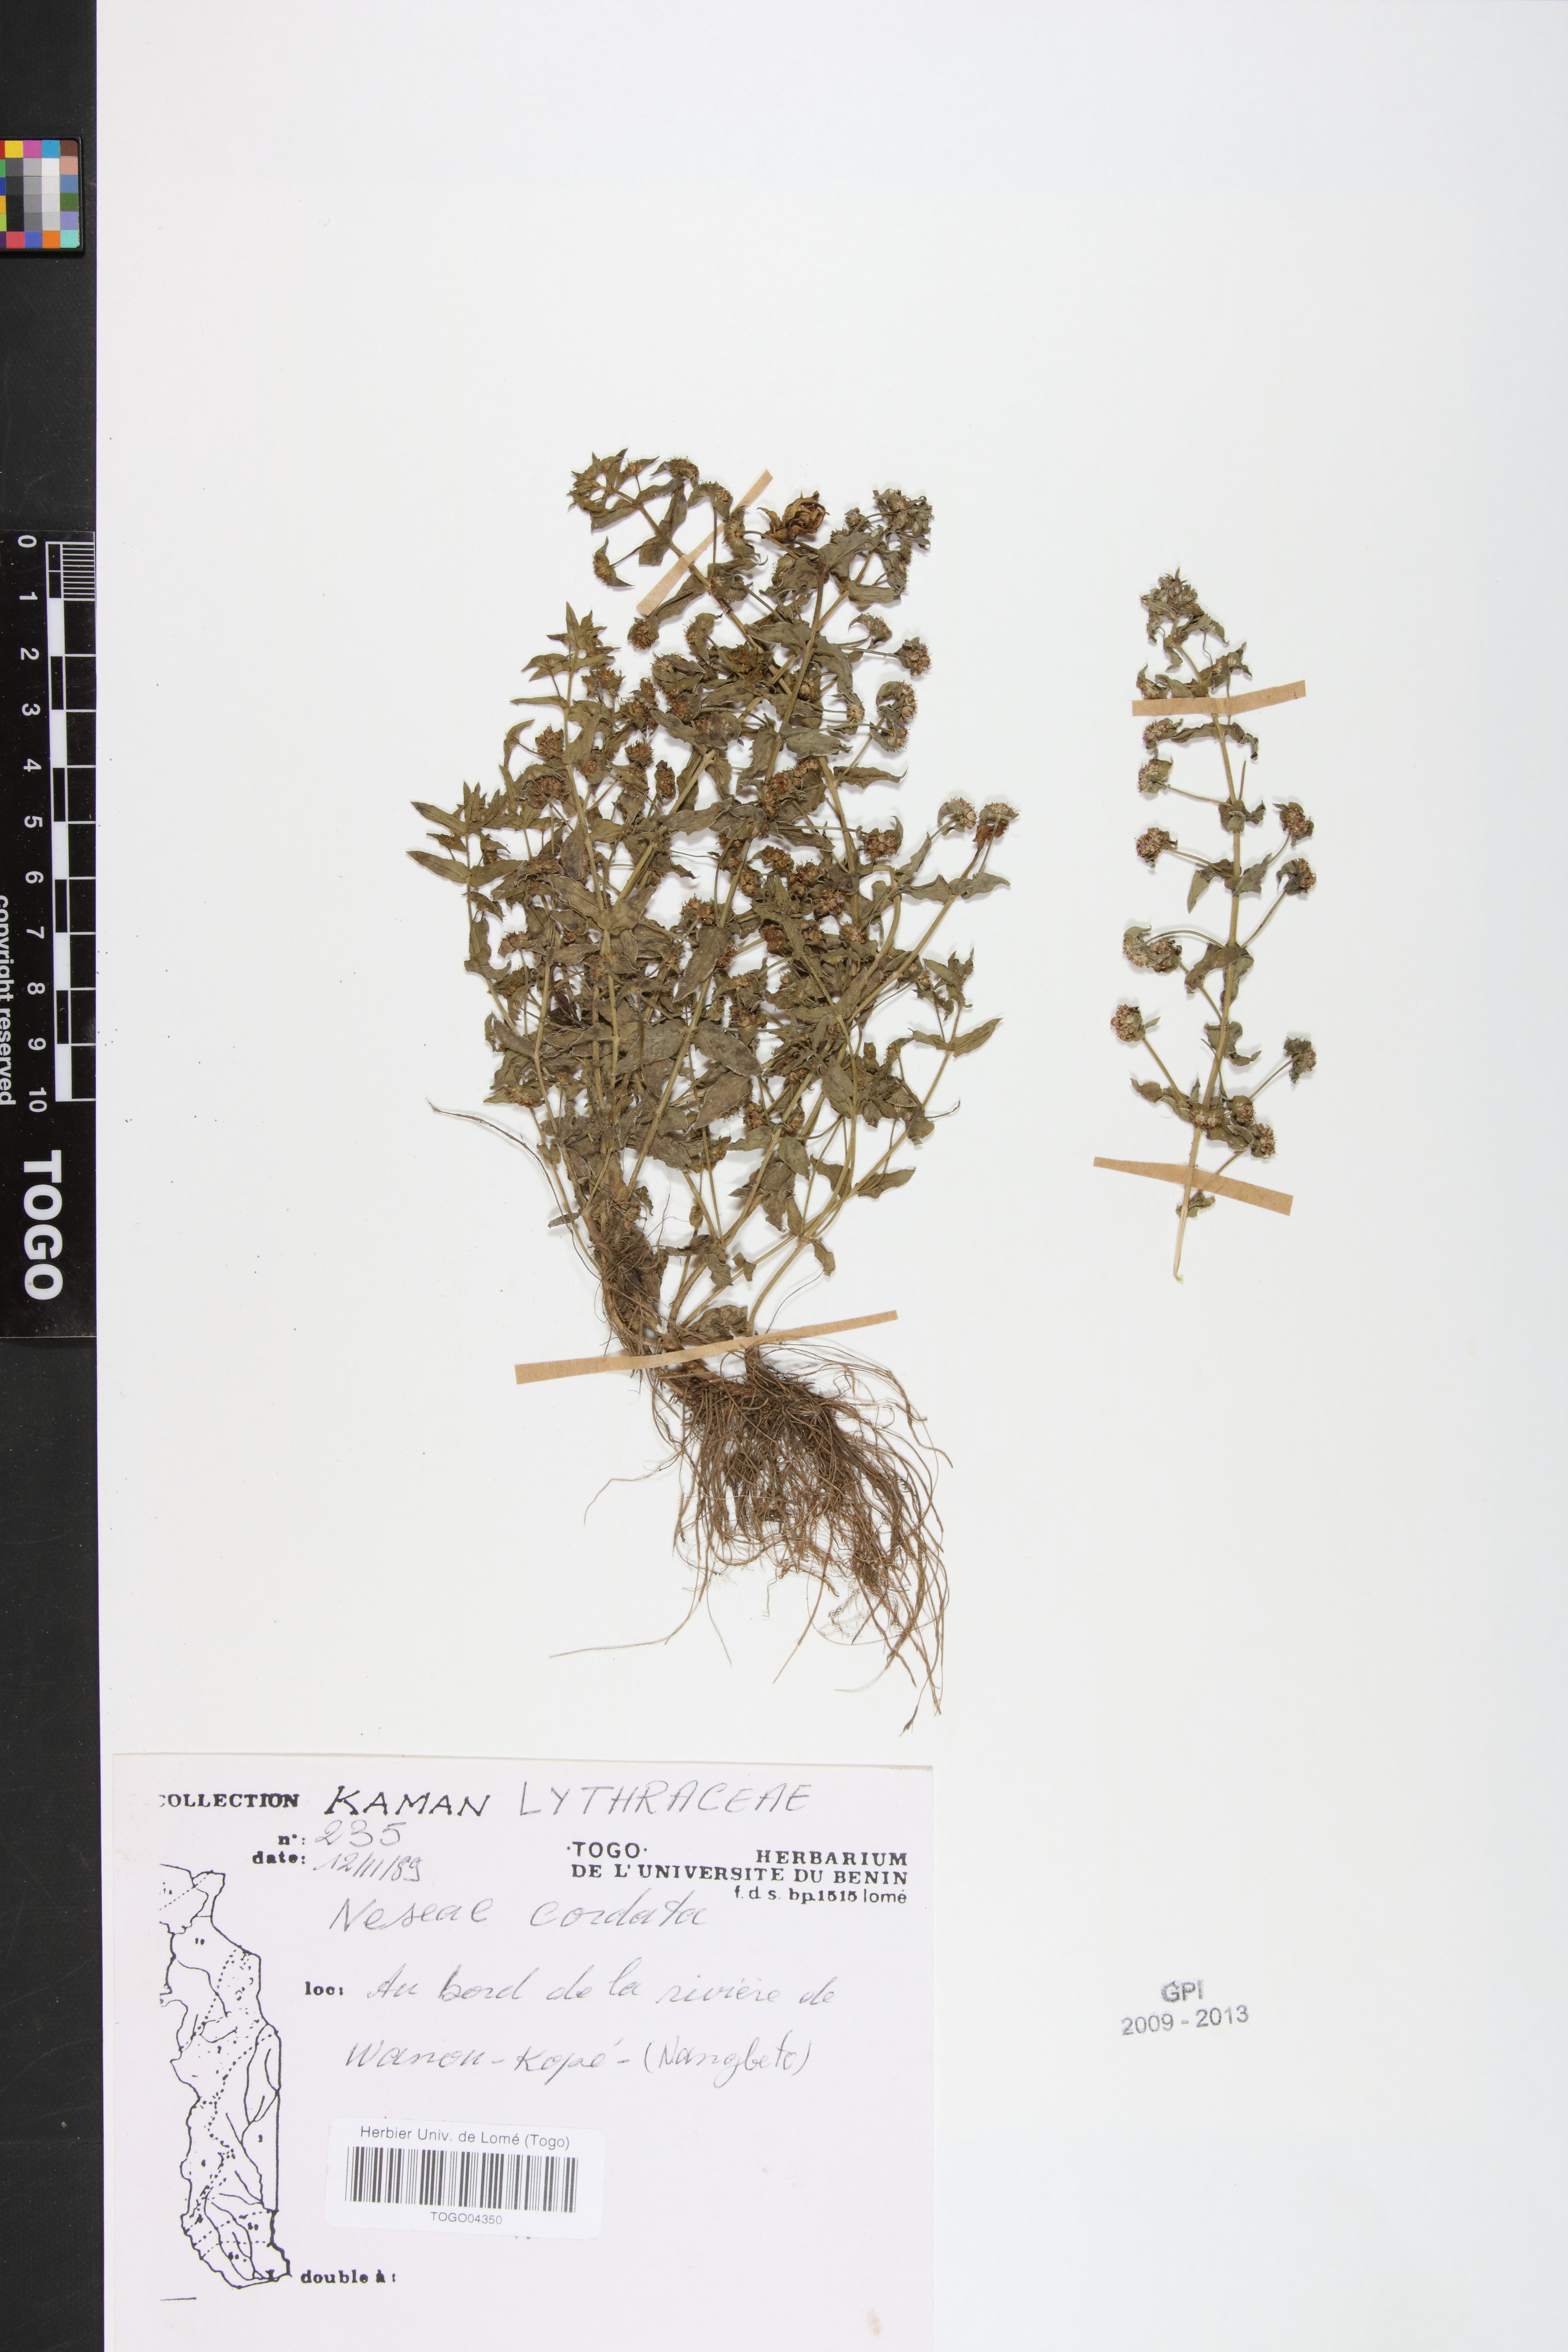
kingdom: Plantae
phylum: Tracheophyta
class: Magnoliopsida
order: Myrtales
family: Lythraceae
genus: Ammannia
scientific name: Ammannia involucrata
